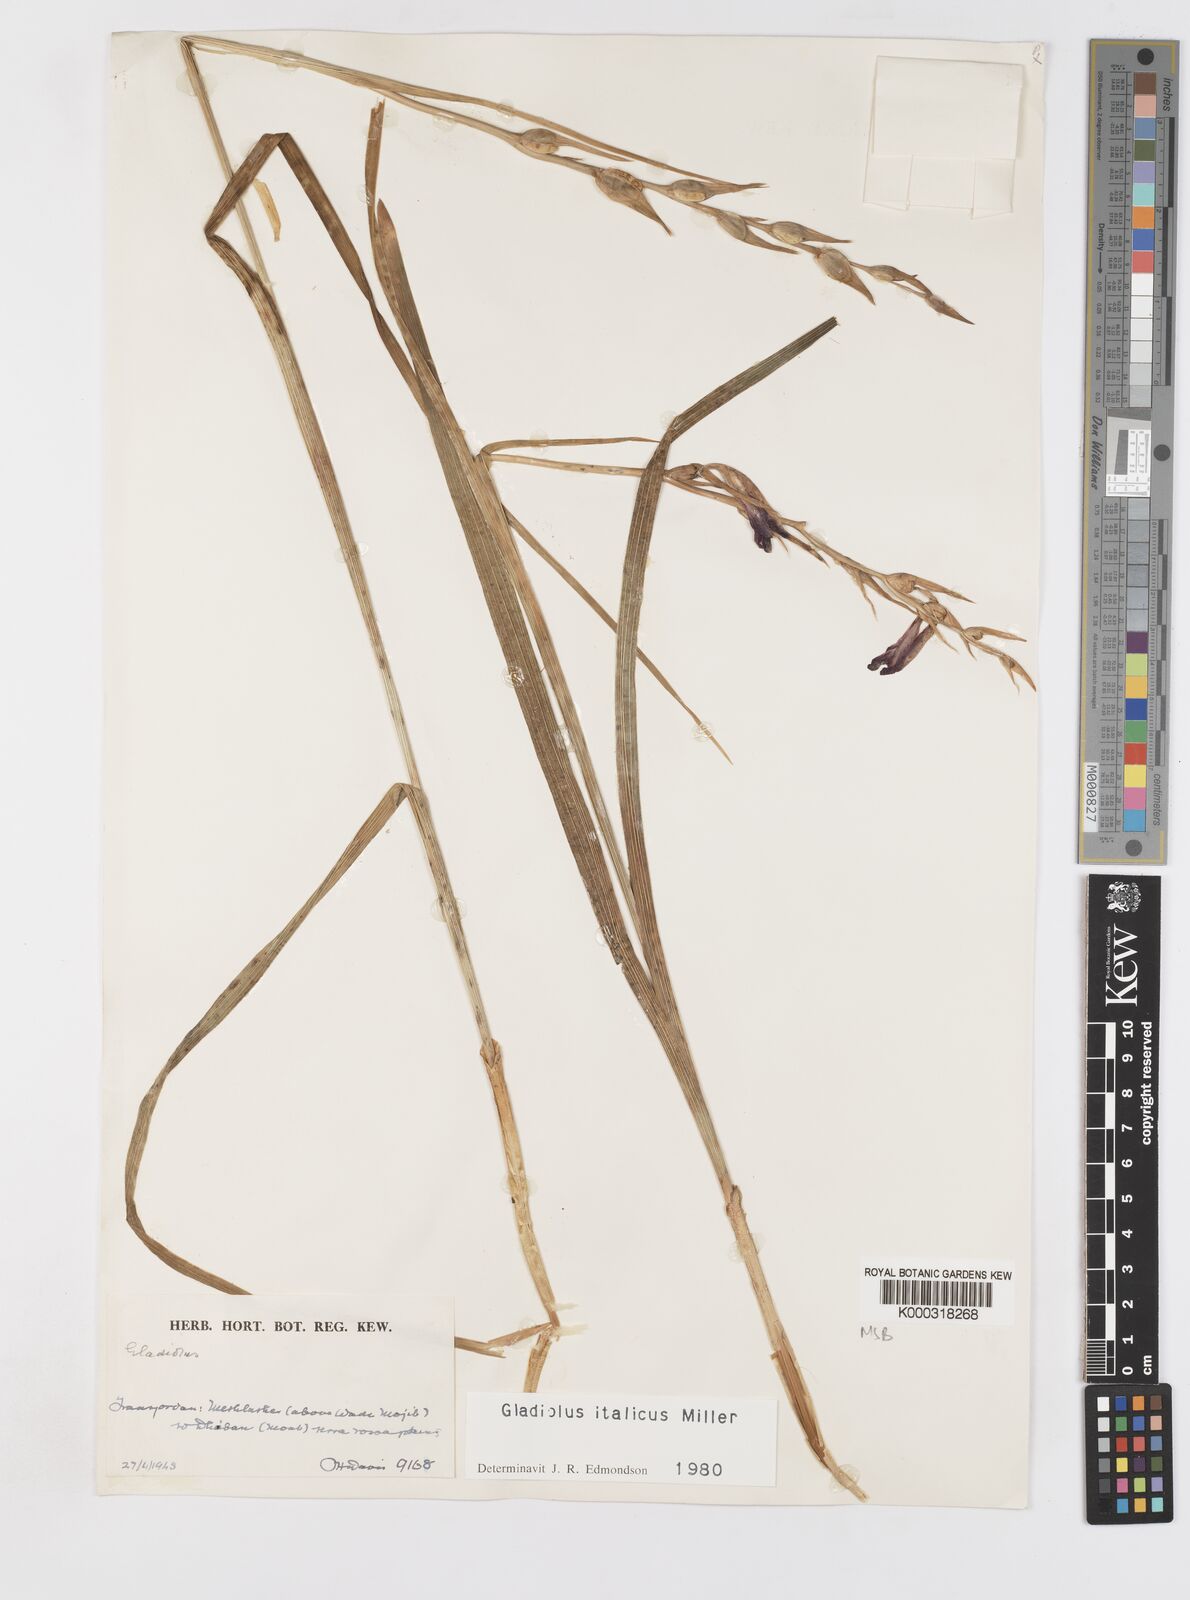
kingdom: Plantae
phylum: Tracheophyta
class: Liliopsida
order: Asparagales
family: Iridaceae
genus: Gladiolus
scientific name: Gladiolus italicus
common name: Field gladiolus
